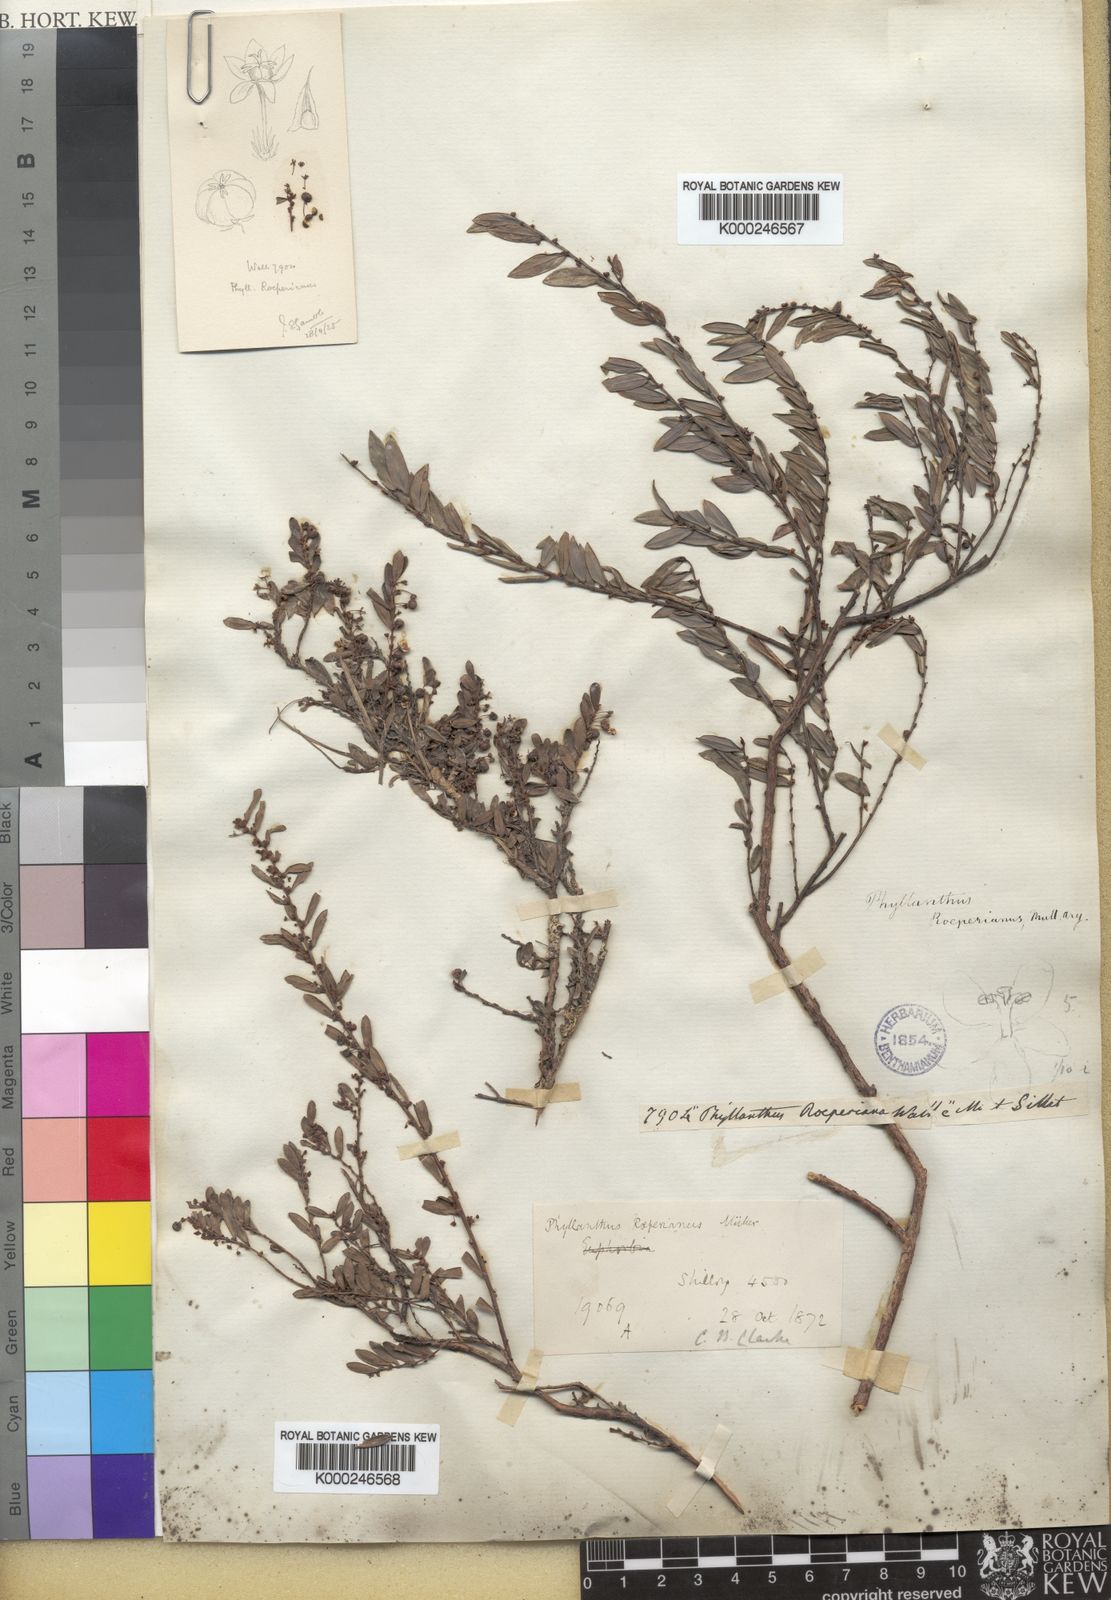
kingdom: Plantae
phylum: Tracheophyta
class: Magnoliopsida
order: Malpighiales
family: Phyllanthaceae
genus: Phyllanthus
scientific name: Phyllanthus cochinchinensis
